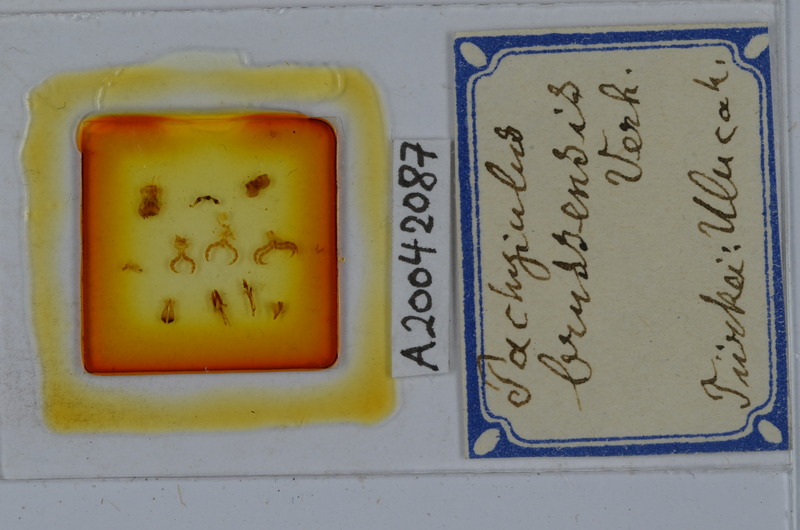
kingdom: Animalia
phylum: Arthropoda
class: Diplopoda
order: Julida
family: Julidae
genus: Pachyiulus
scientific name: Pachyiulus brussensis
